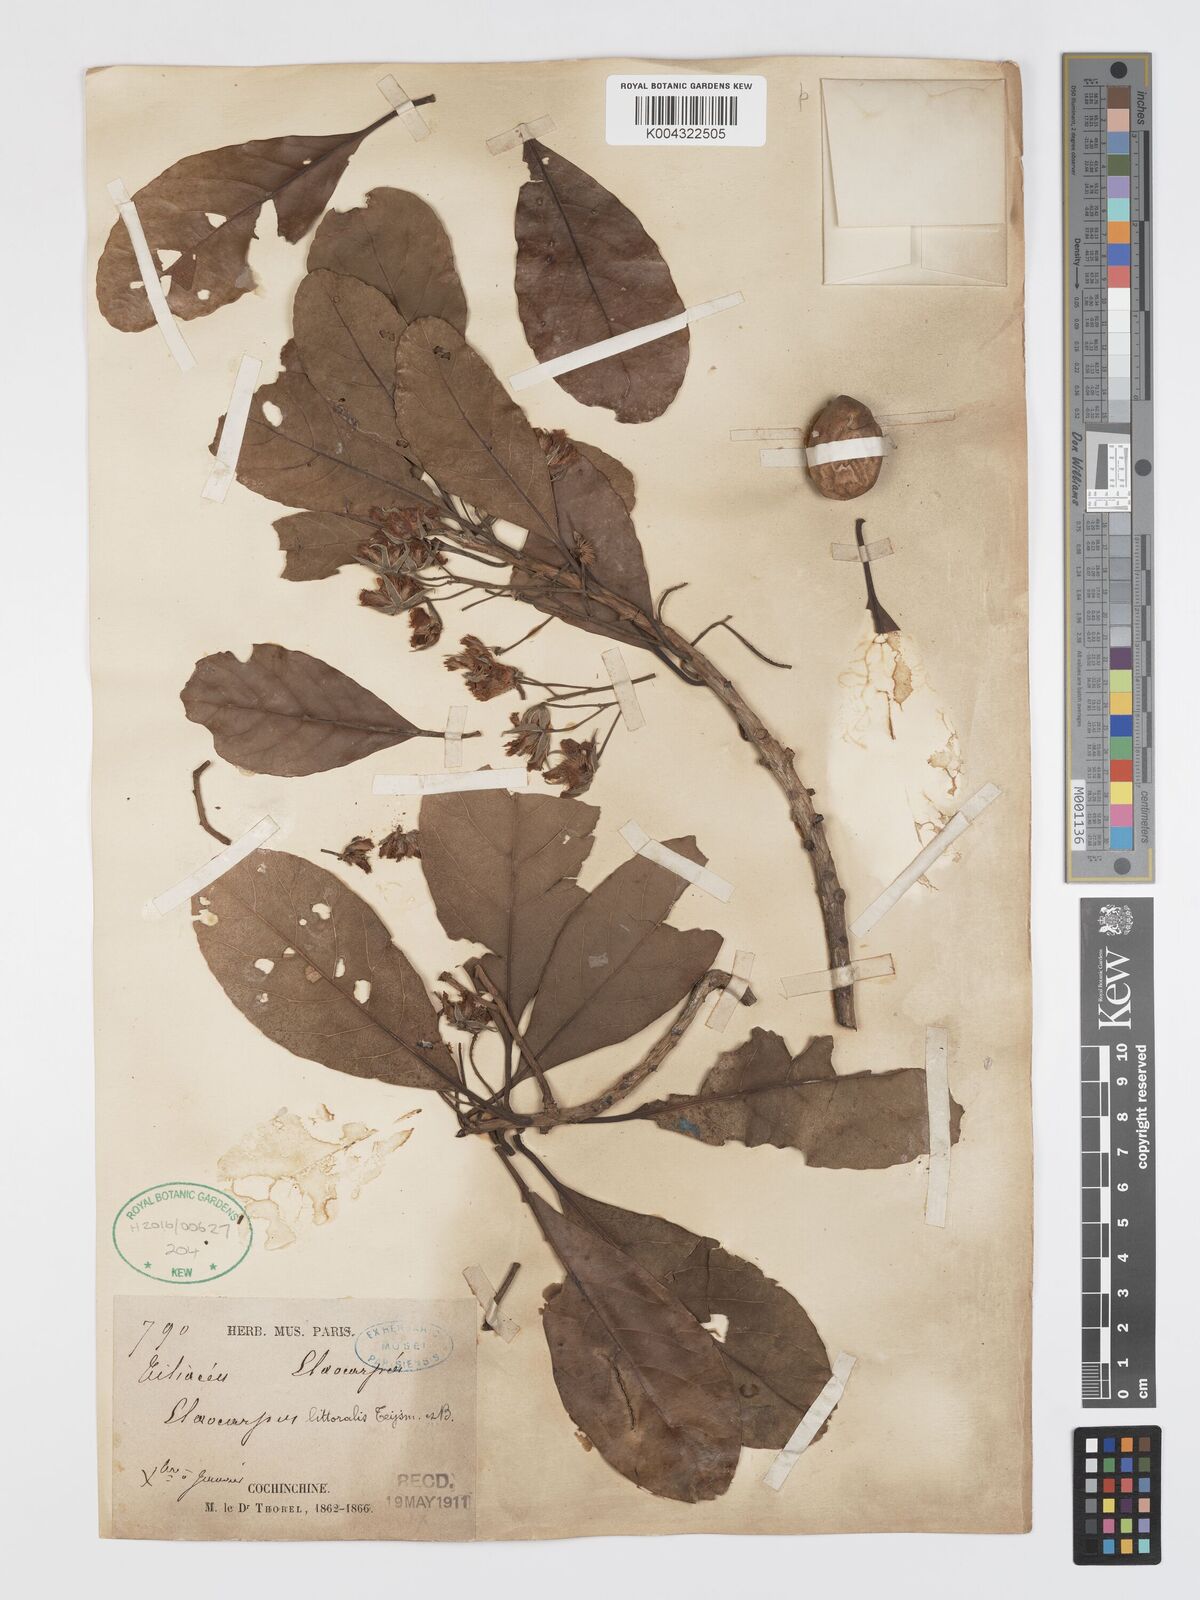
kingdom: Plantae
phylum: Tracheophyta
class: Magnoliopsida
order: Oxalidales
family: Elaeocarpaceae
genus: Elaeocarpus
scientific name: Elaeocarpus macrocerus
